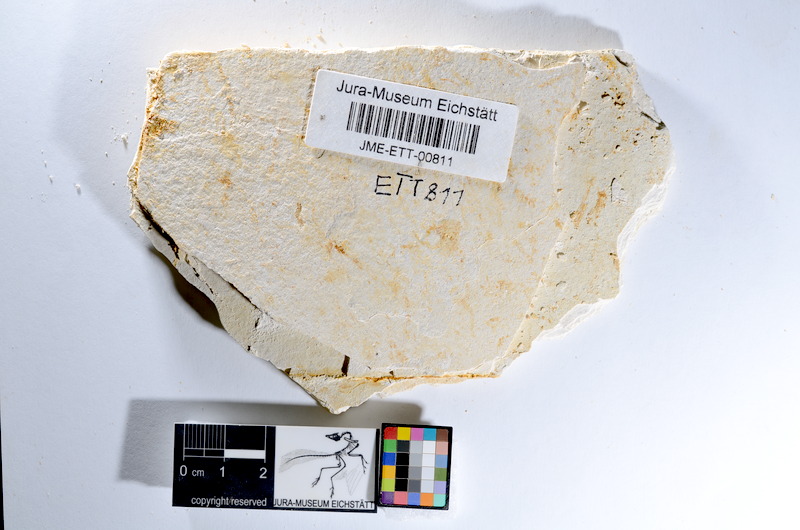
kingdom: Animalia
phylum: Chordata
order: Salmoniformes
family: Orthogonikleithridae
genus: Orthogonikleithrus
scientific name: Orthogonikleithrus hoelli
